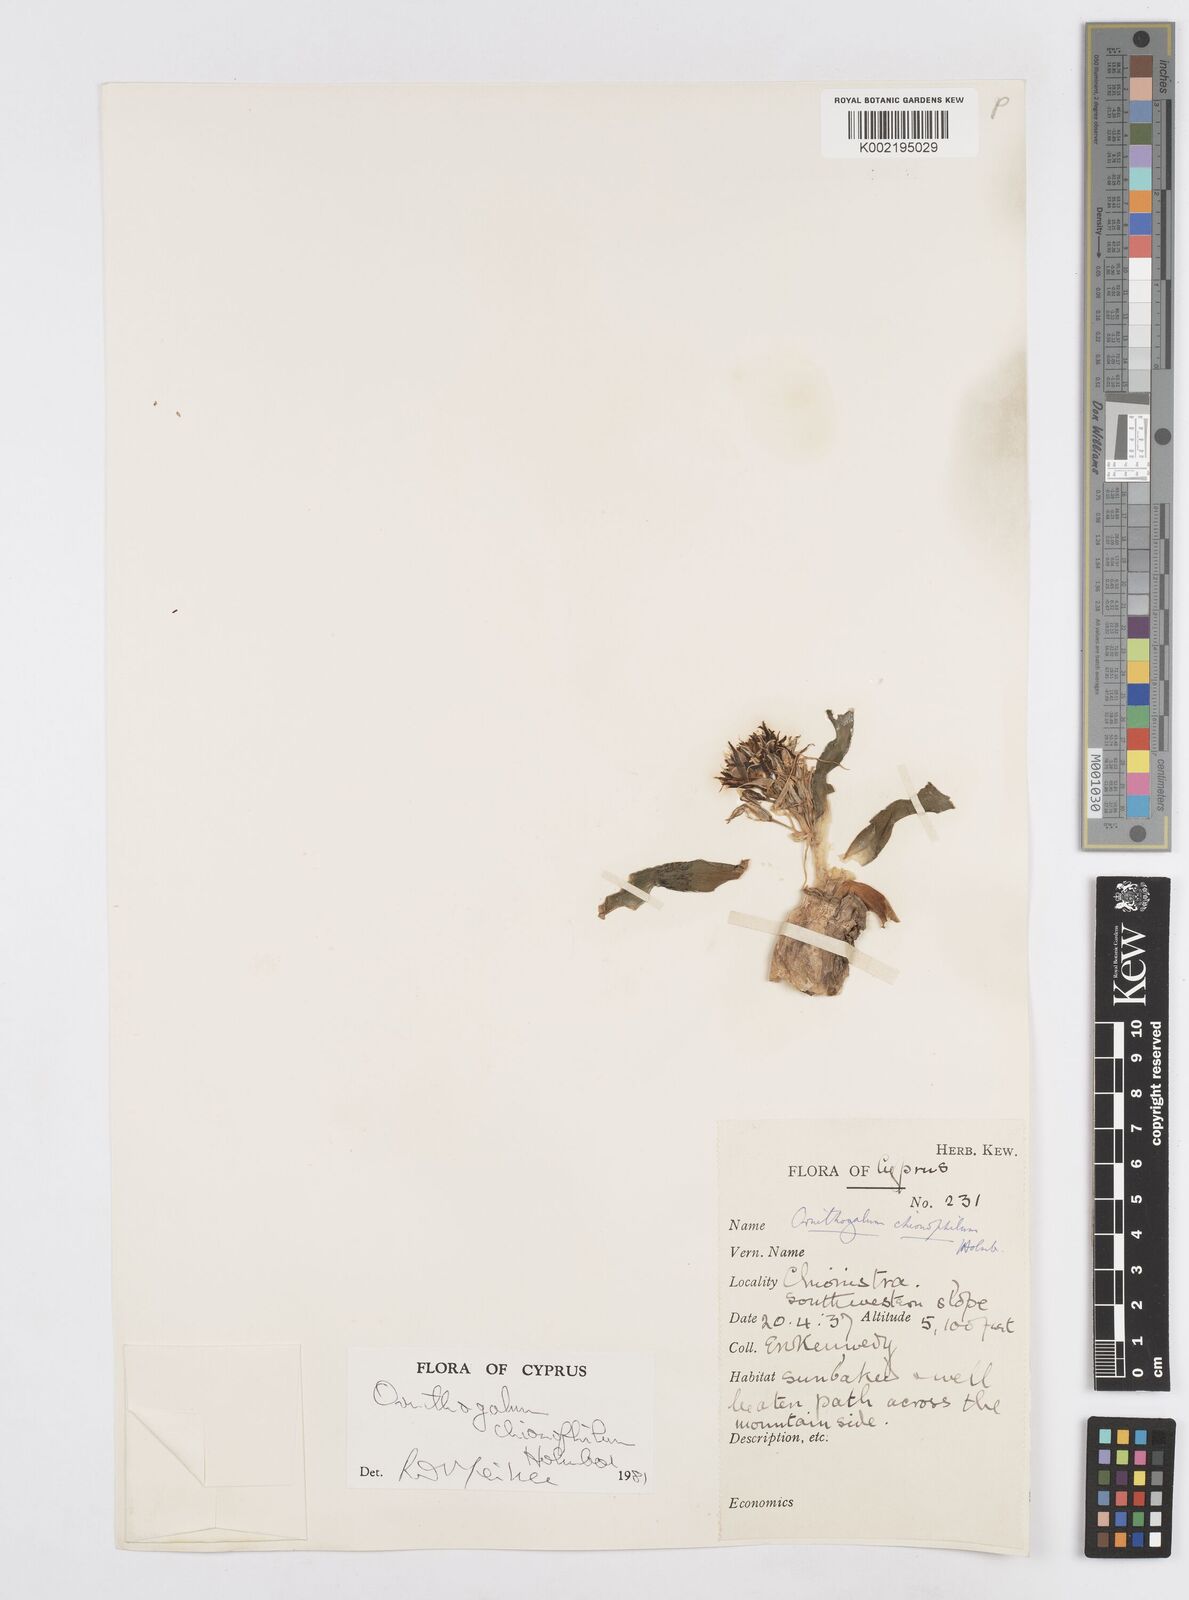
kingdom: Plantae
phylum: Tracheophyta
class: Liliopsida
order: Asparagales
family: Asparagaceae
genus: Ornithogalum
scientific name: Ornithogalum chionophilum
